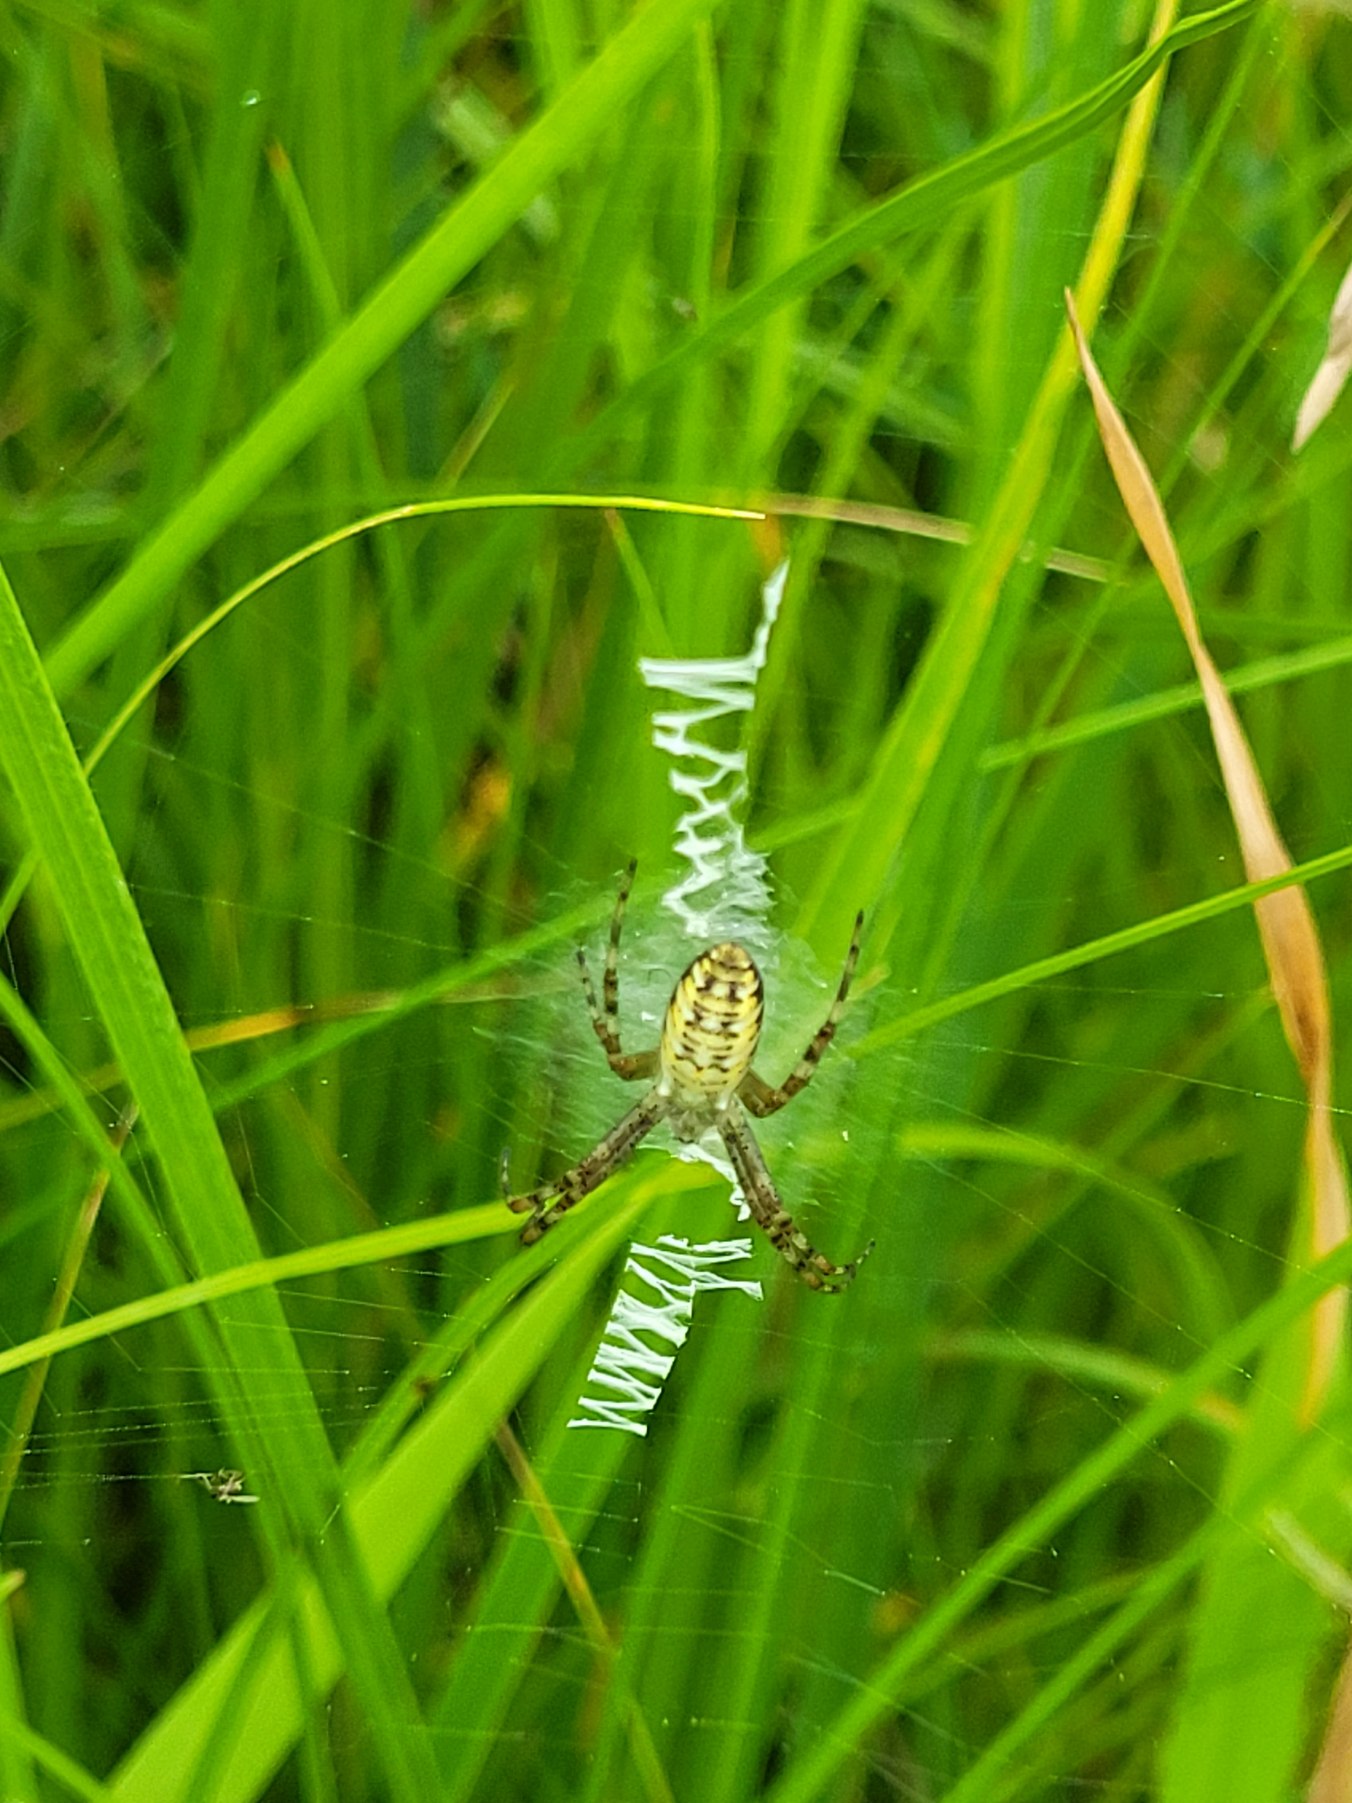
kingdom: Animalia
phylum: Arthropoda
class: Arachnida
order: Araneae
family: Araneidae
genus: Argiope
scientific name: Argiope bruennichi
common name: Hvepseedderkop
